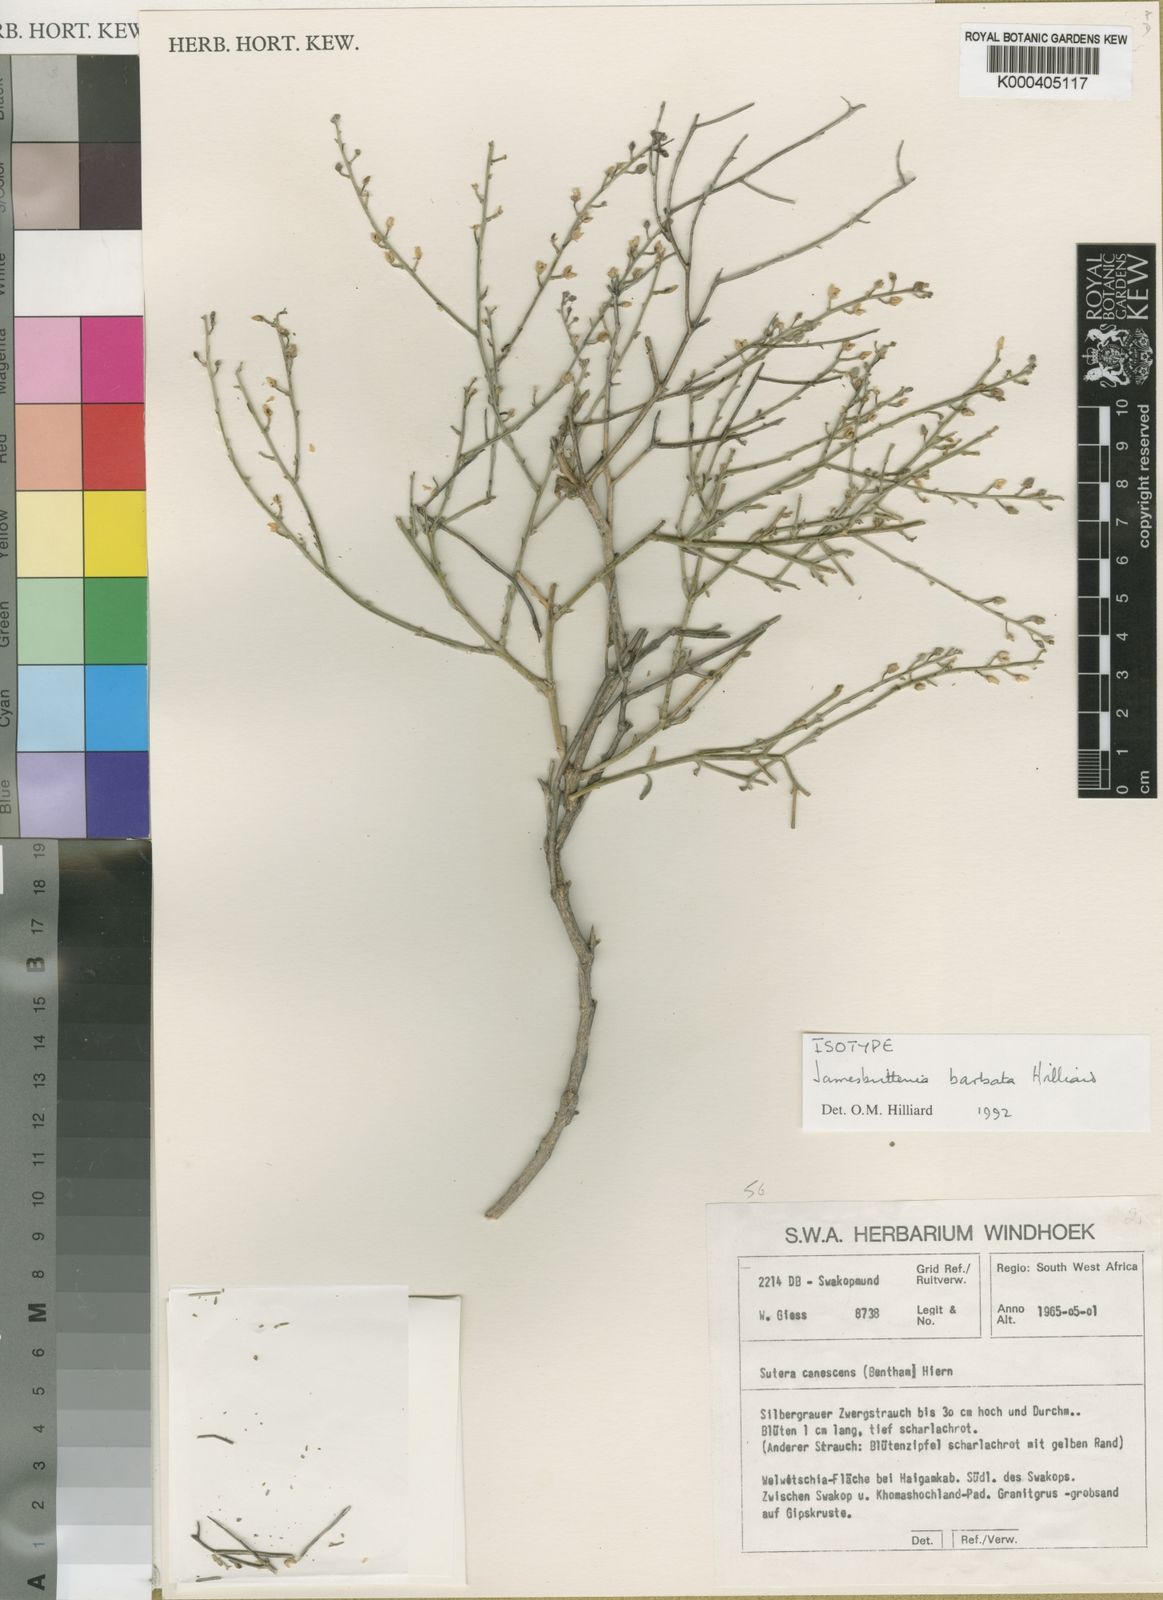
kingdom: Plantae
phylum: Tracheophyta
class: Magnoliopsida
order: Lamiales
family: Scrophulariaceae
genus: Jamesbrittenia
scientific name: Jamesbrittenia barbata
